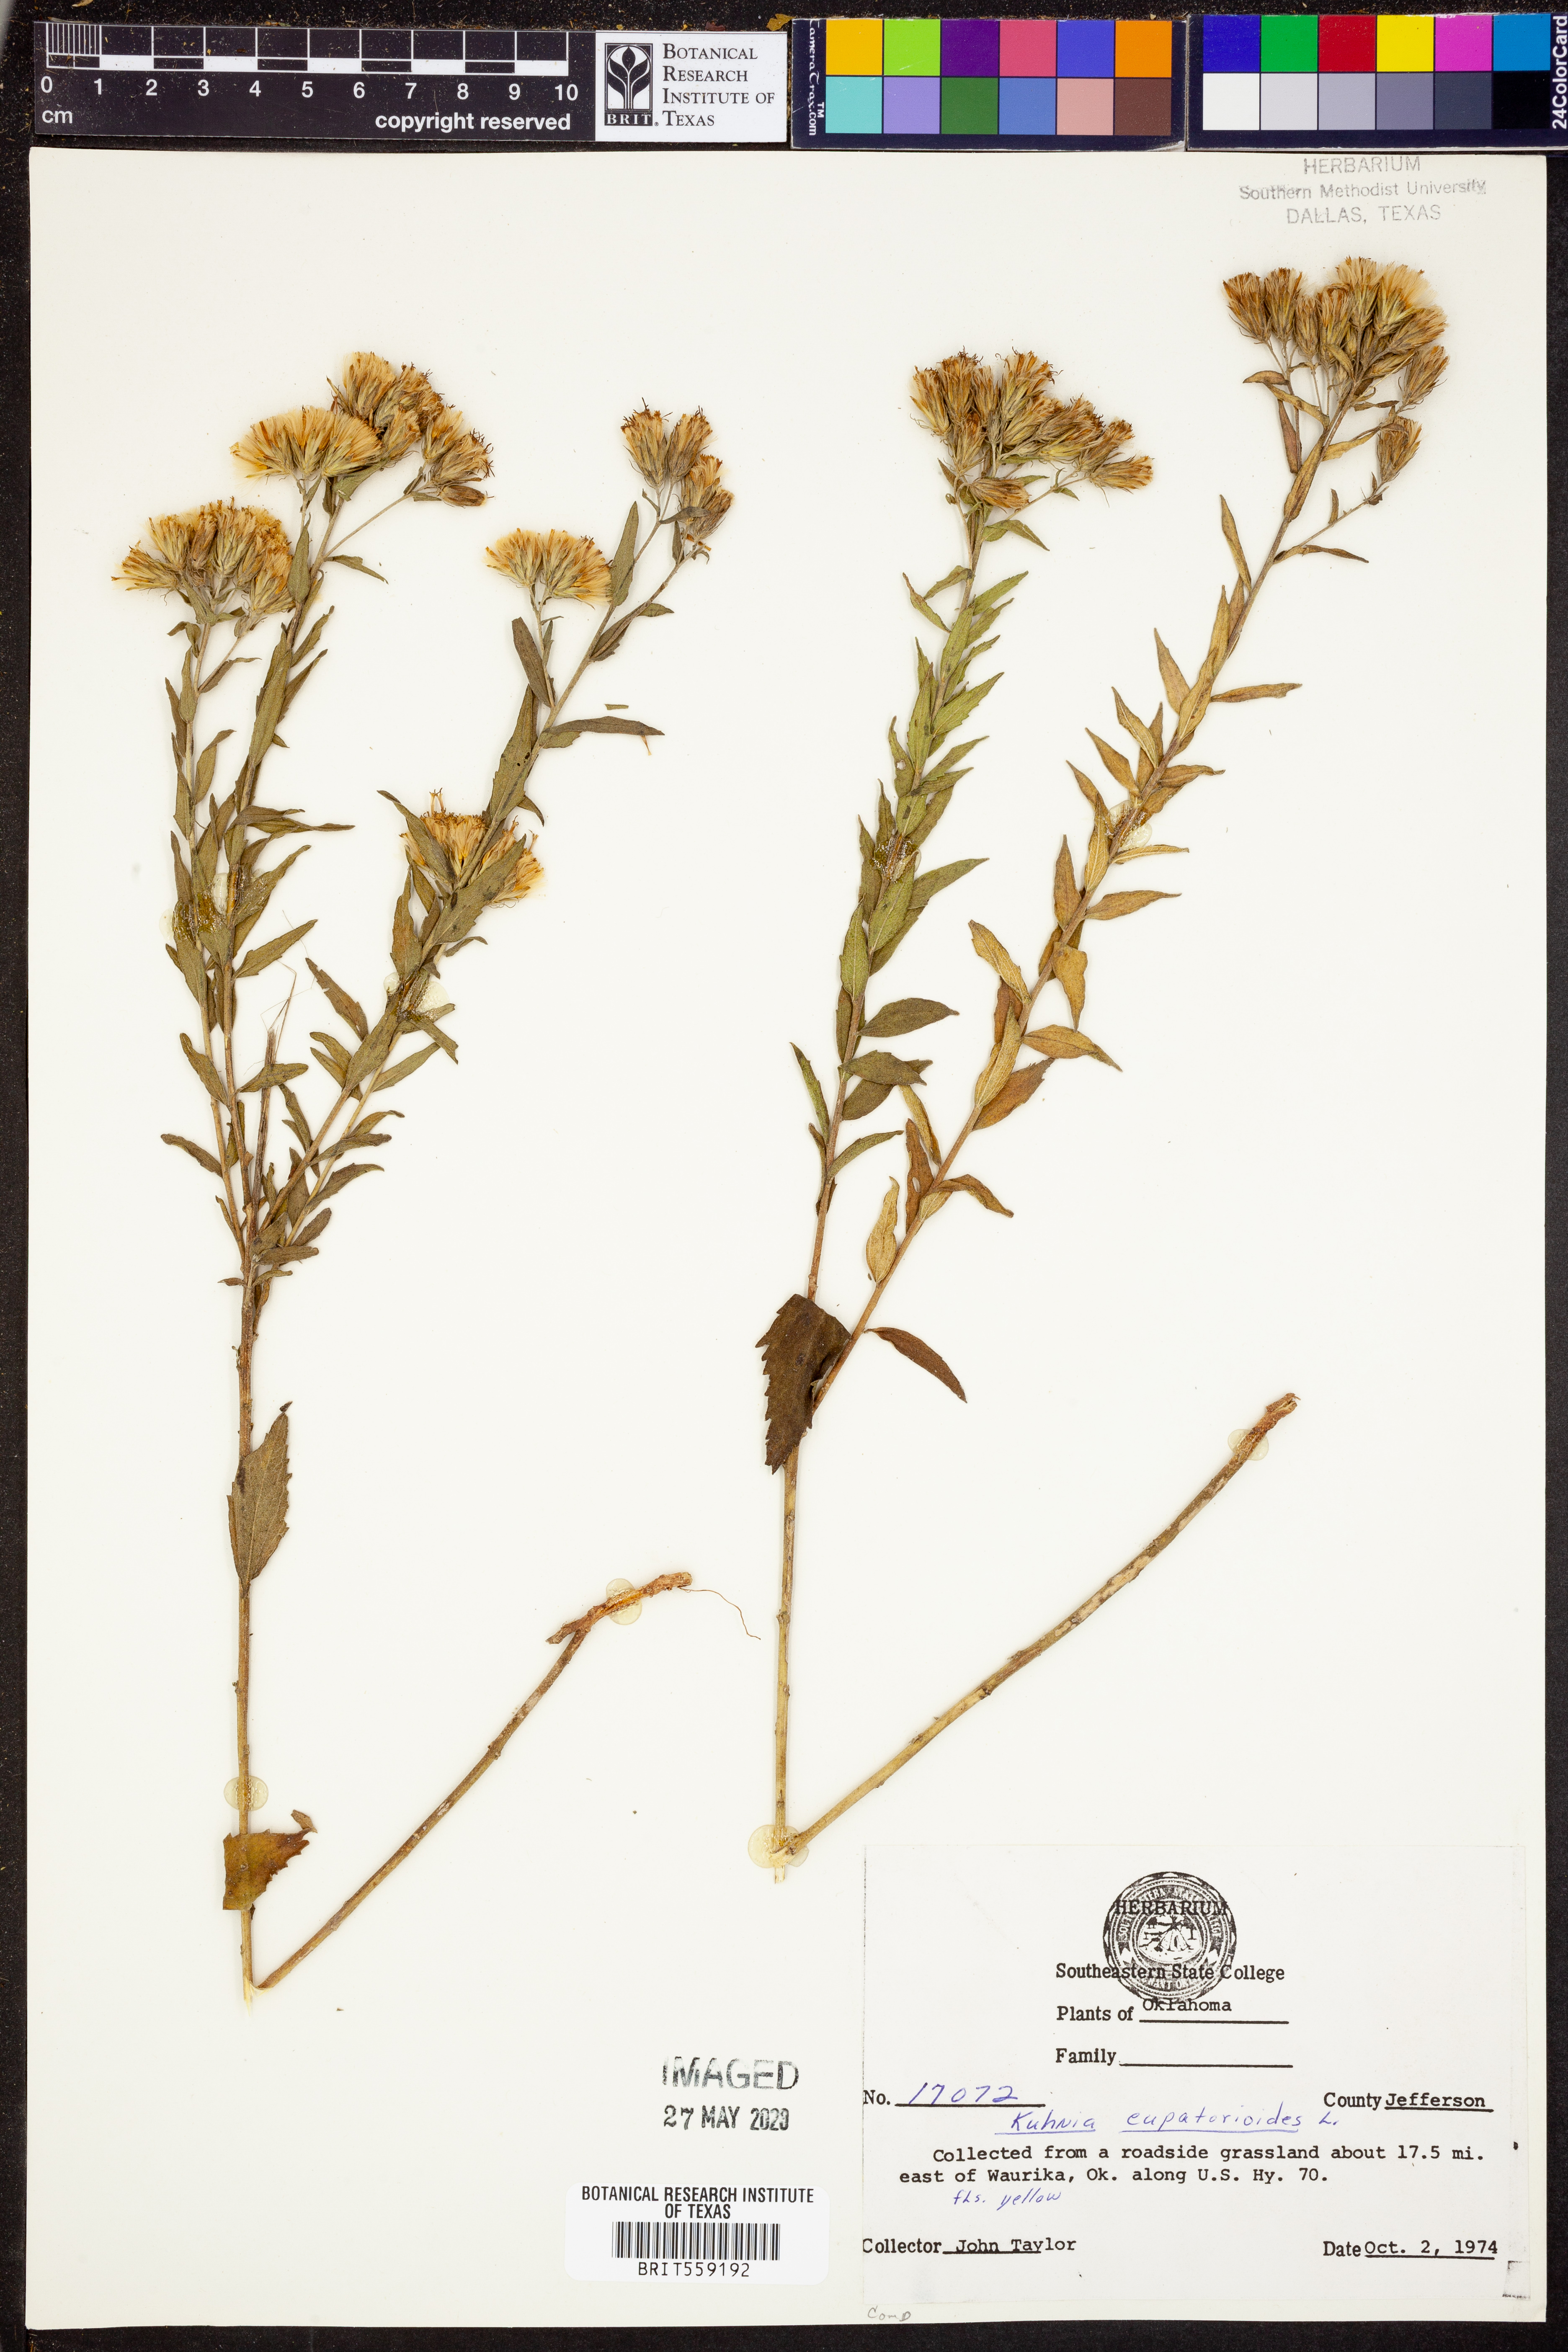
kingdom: Plantae
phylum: Tracheophyta
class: Magnoliopsida
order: Asterales
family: Asteraceae
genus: Brickellia
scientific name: Brickellia eupatorioides
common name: False boneset
